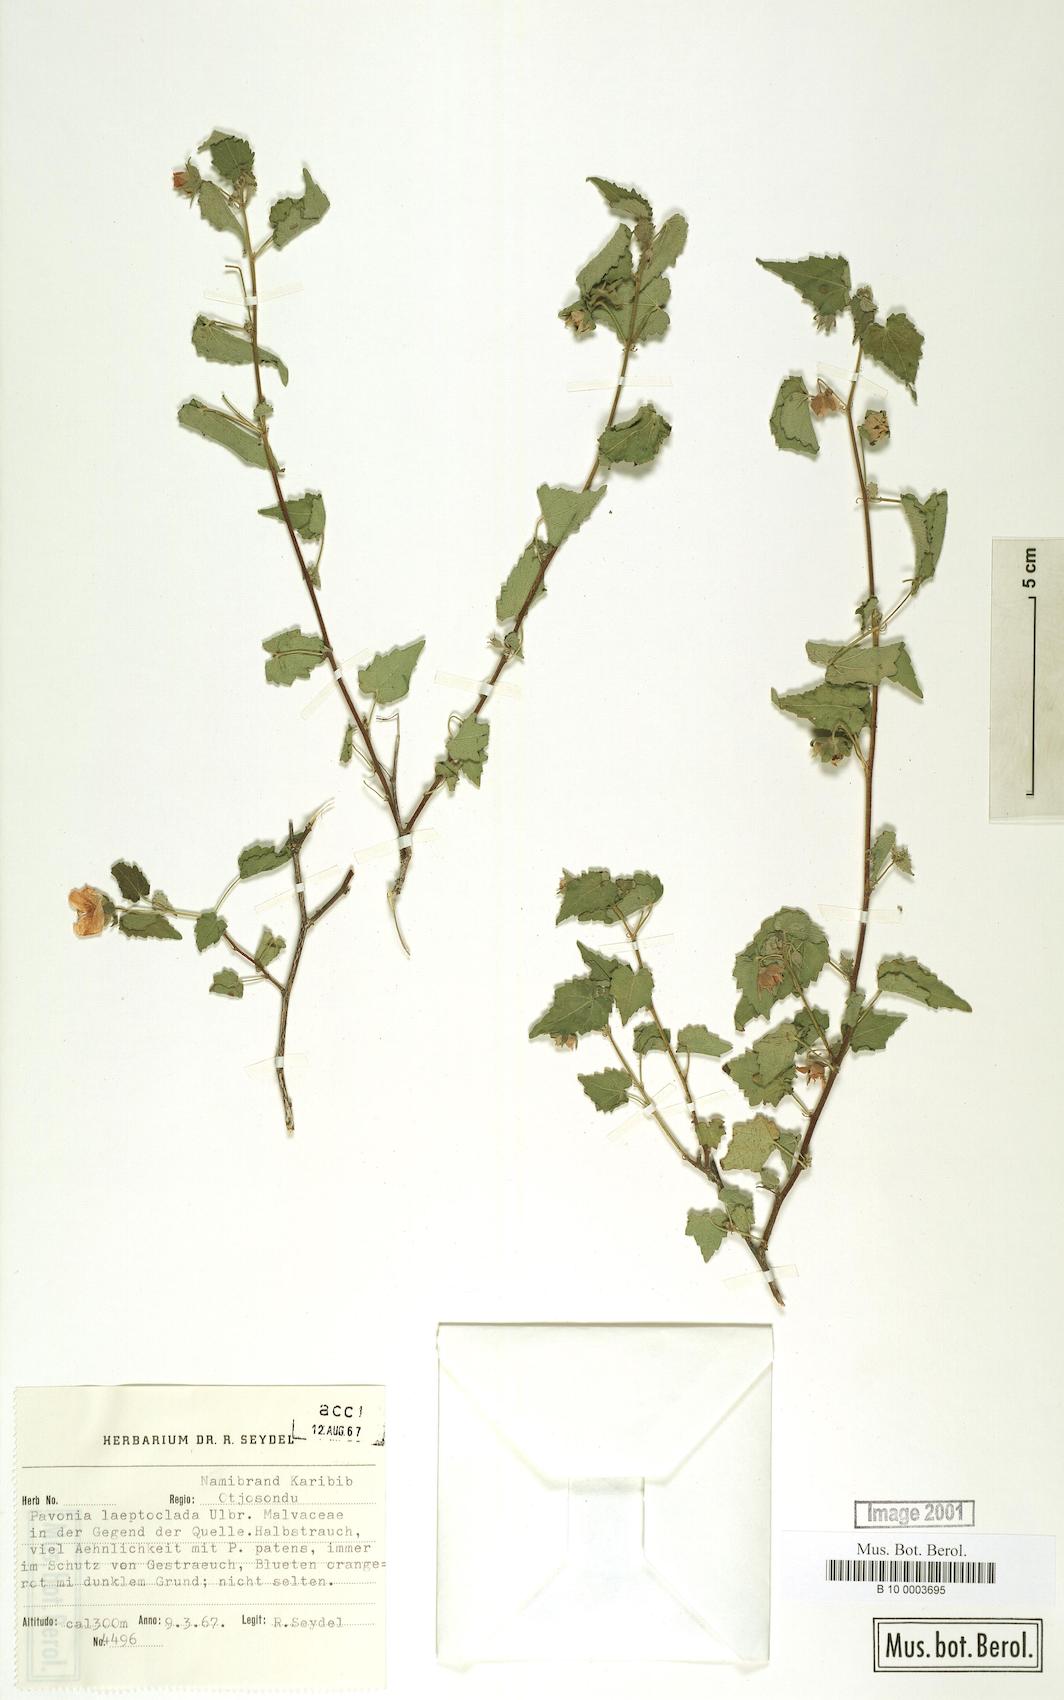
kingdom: Plantae
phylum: Tracheophyta
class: Magnoliopsida
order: Malvales
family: Malvaceae
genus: Pavonia
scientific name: Pavonia burchellii
